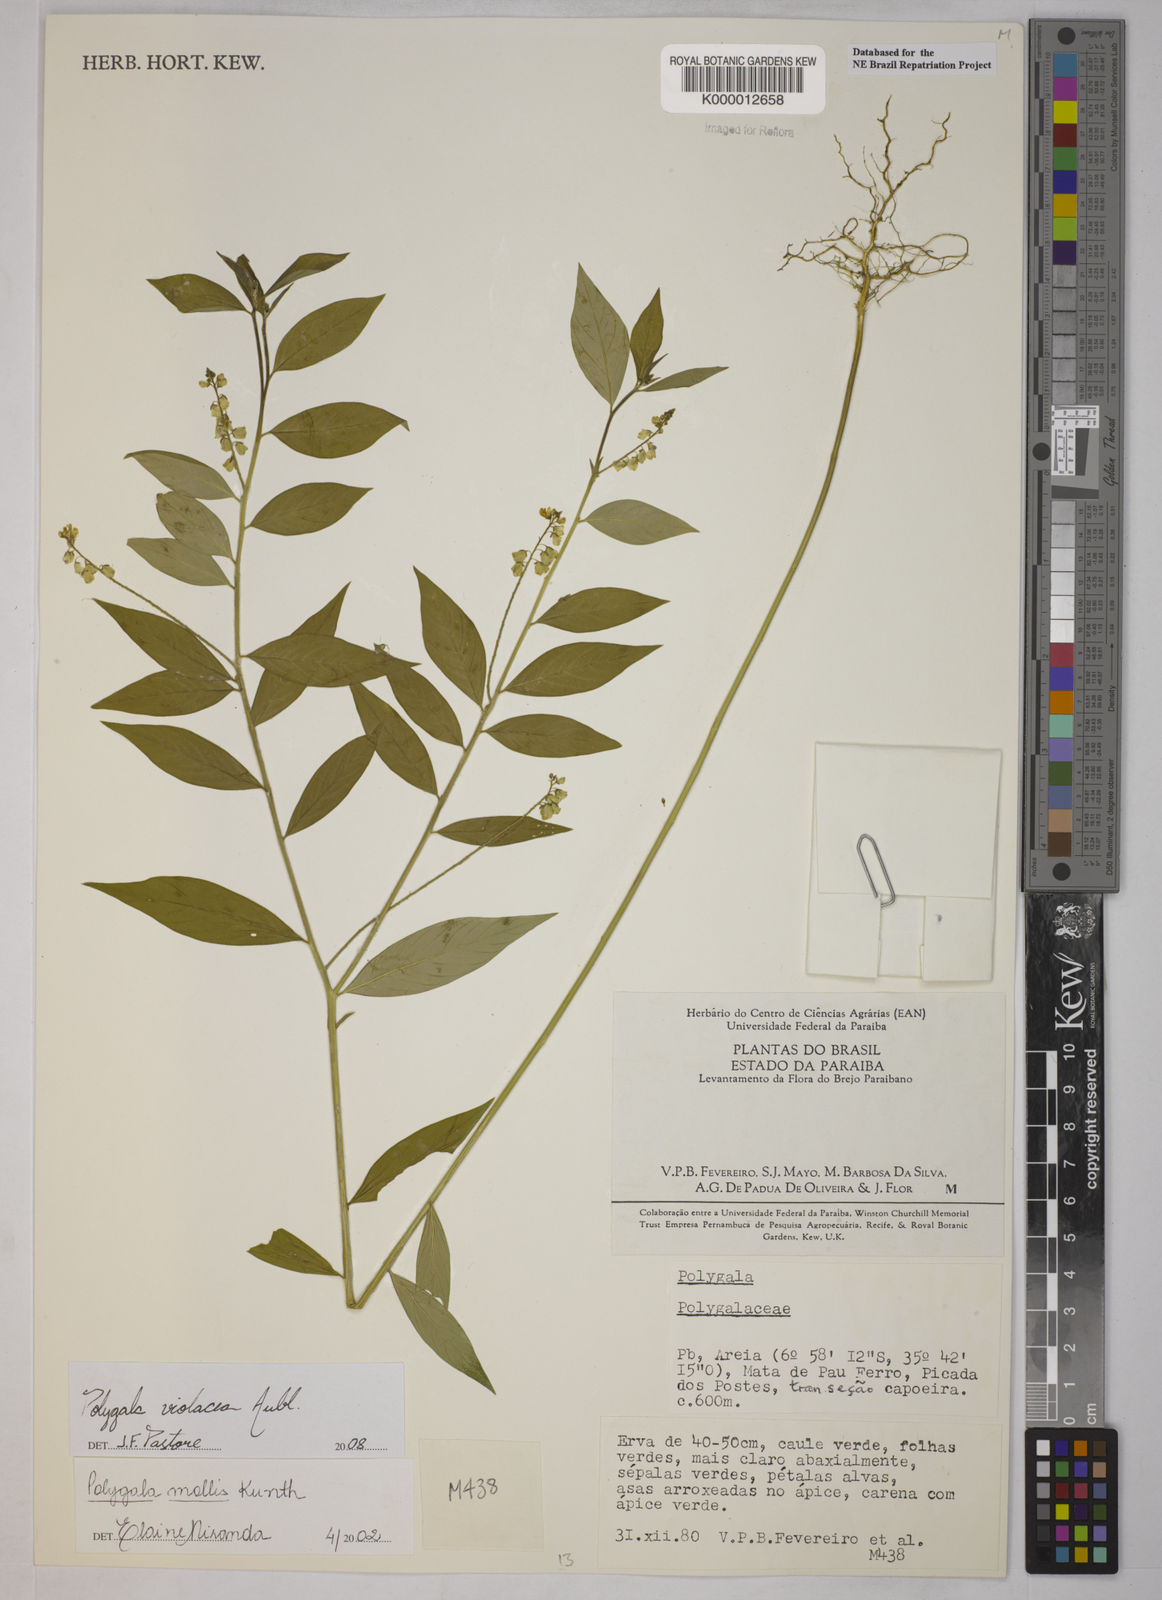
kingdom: Plantae
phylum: Tracheophyta
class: Magnoliopsida
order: Fabales
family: Polygalaceae
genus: Asemeia
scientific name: Asemeia mollis
